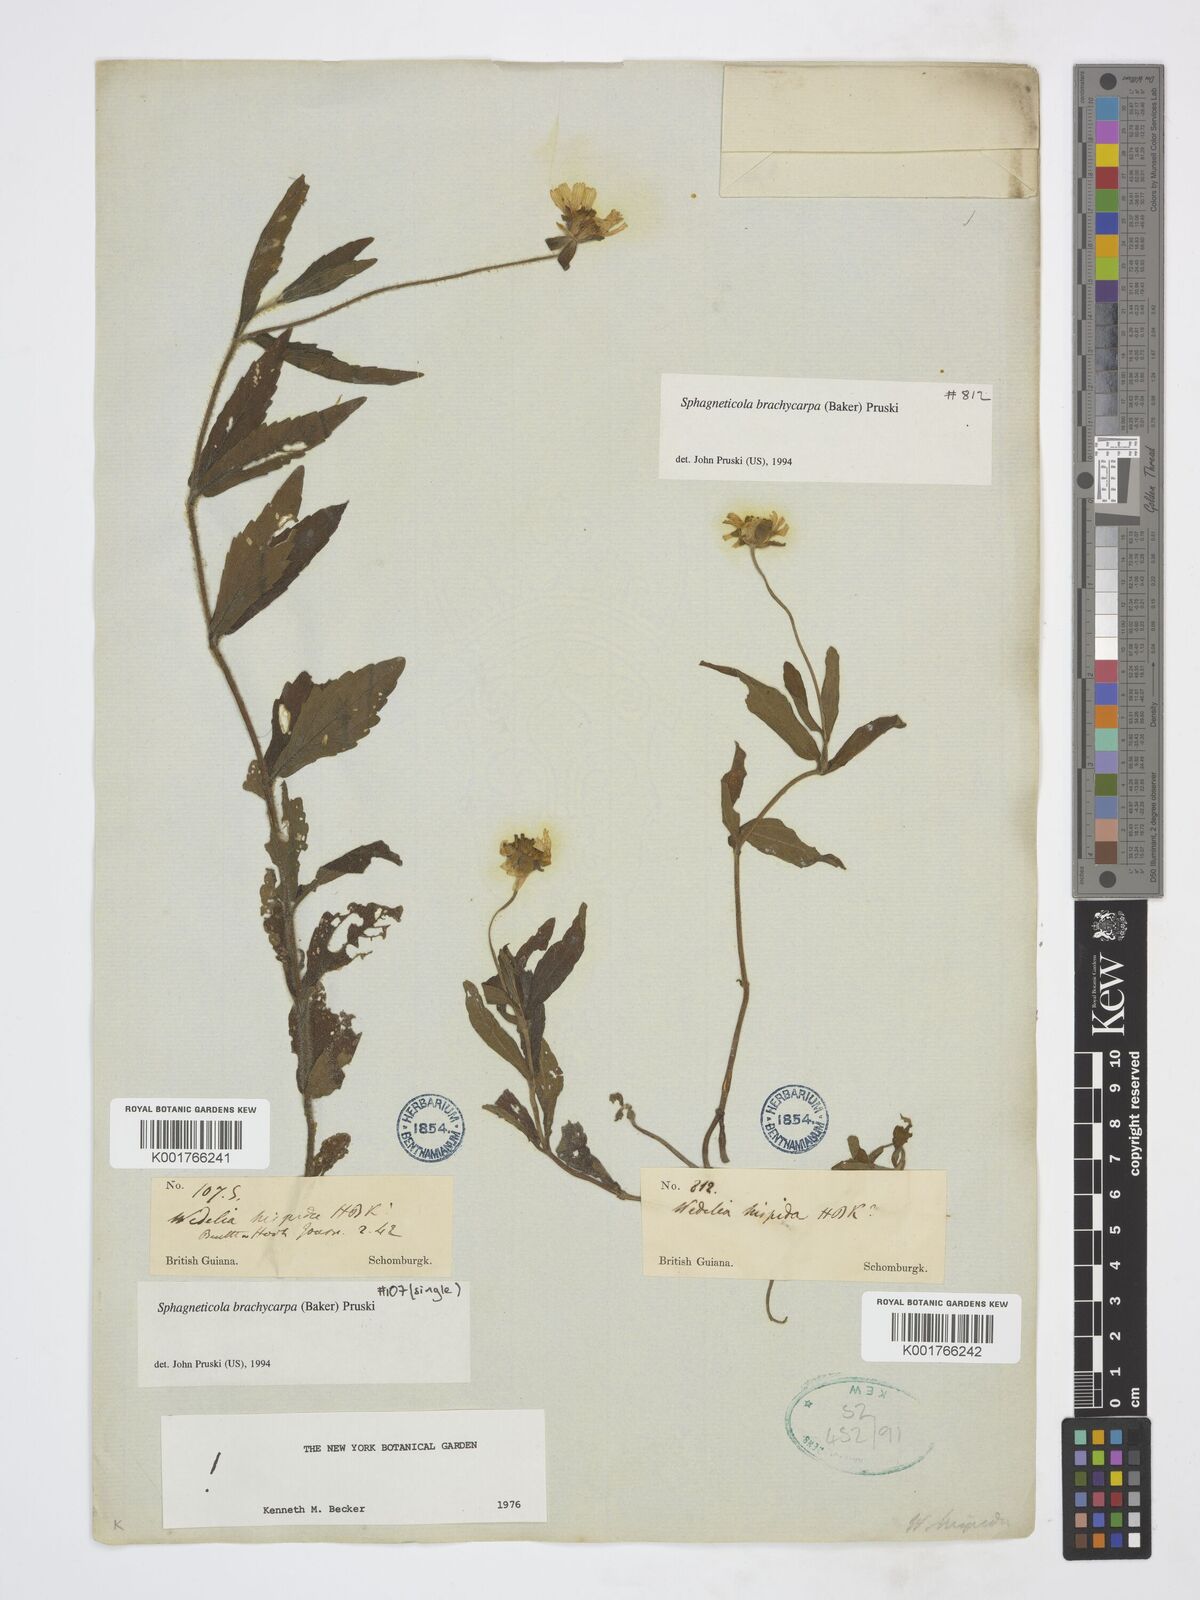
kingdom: Plantae
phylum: Tracheophyta
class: Magnoliopsida
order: Asterales
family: Asteraceae
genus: Sphagneticola
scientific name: Sphagneticola brachycarpa
